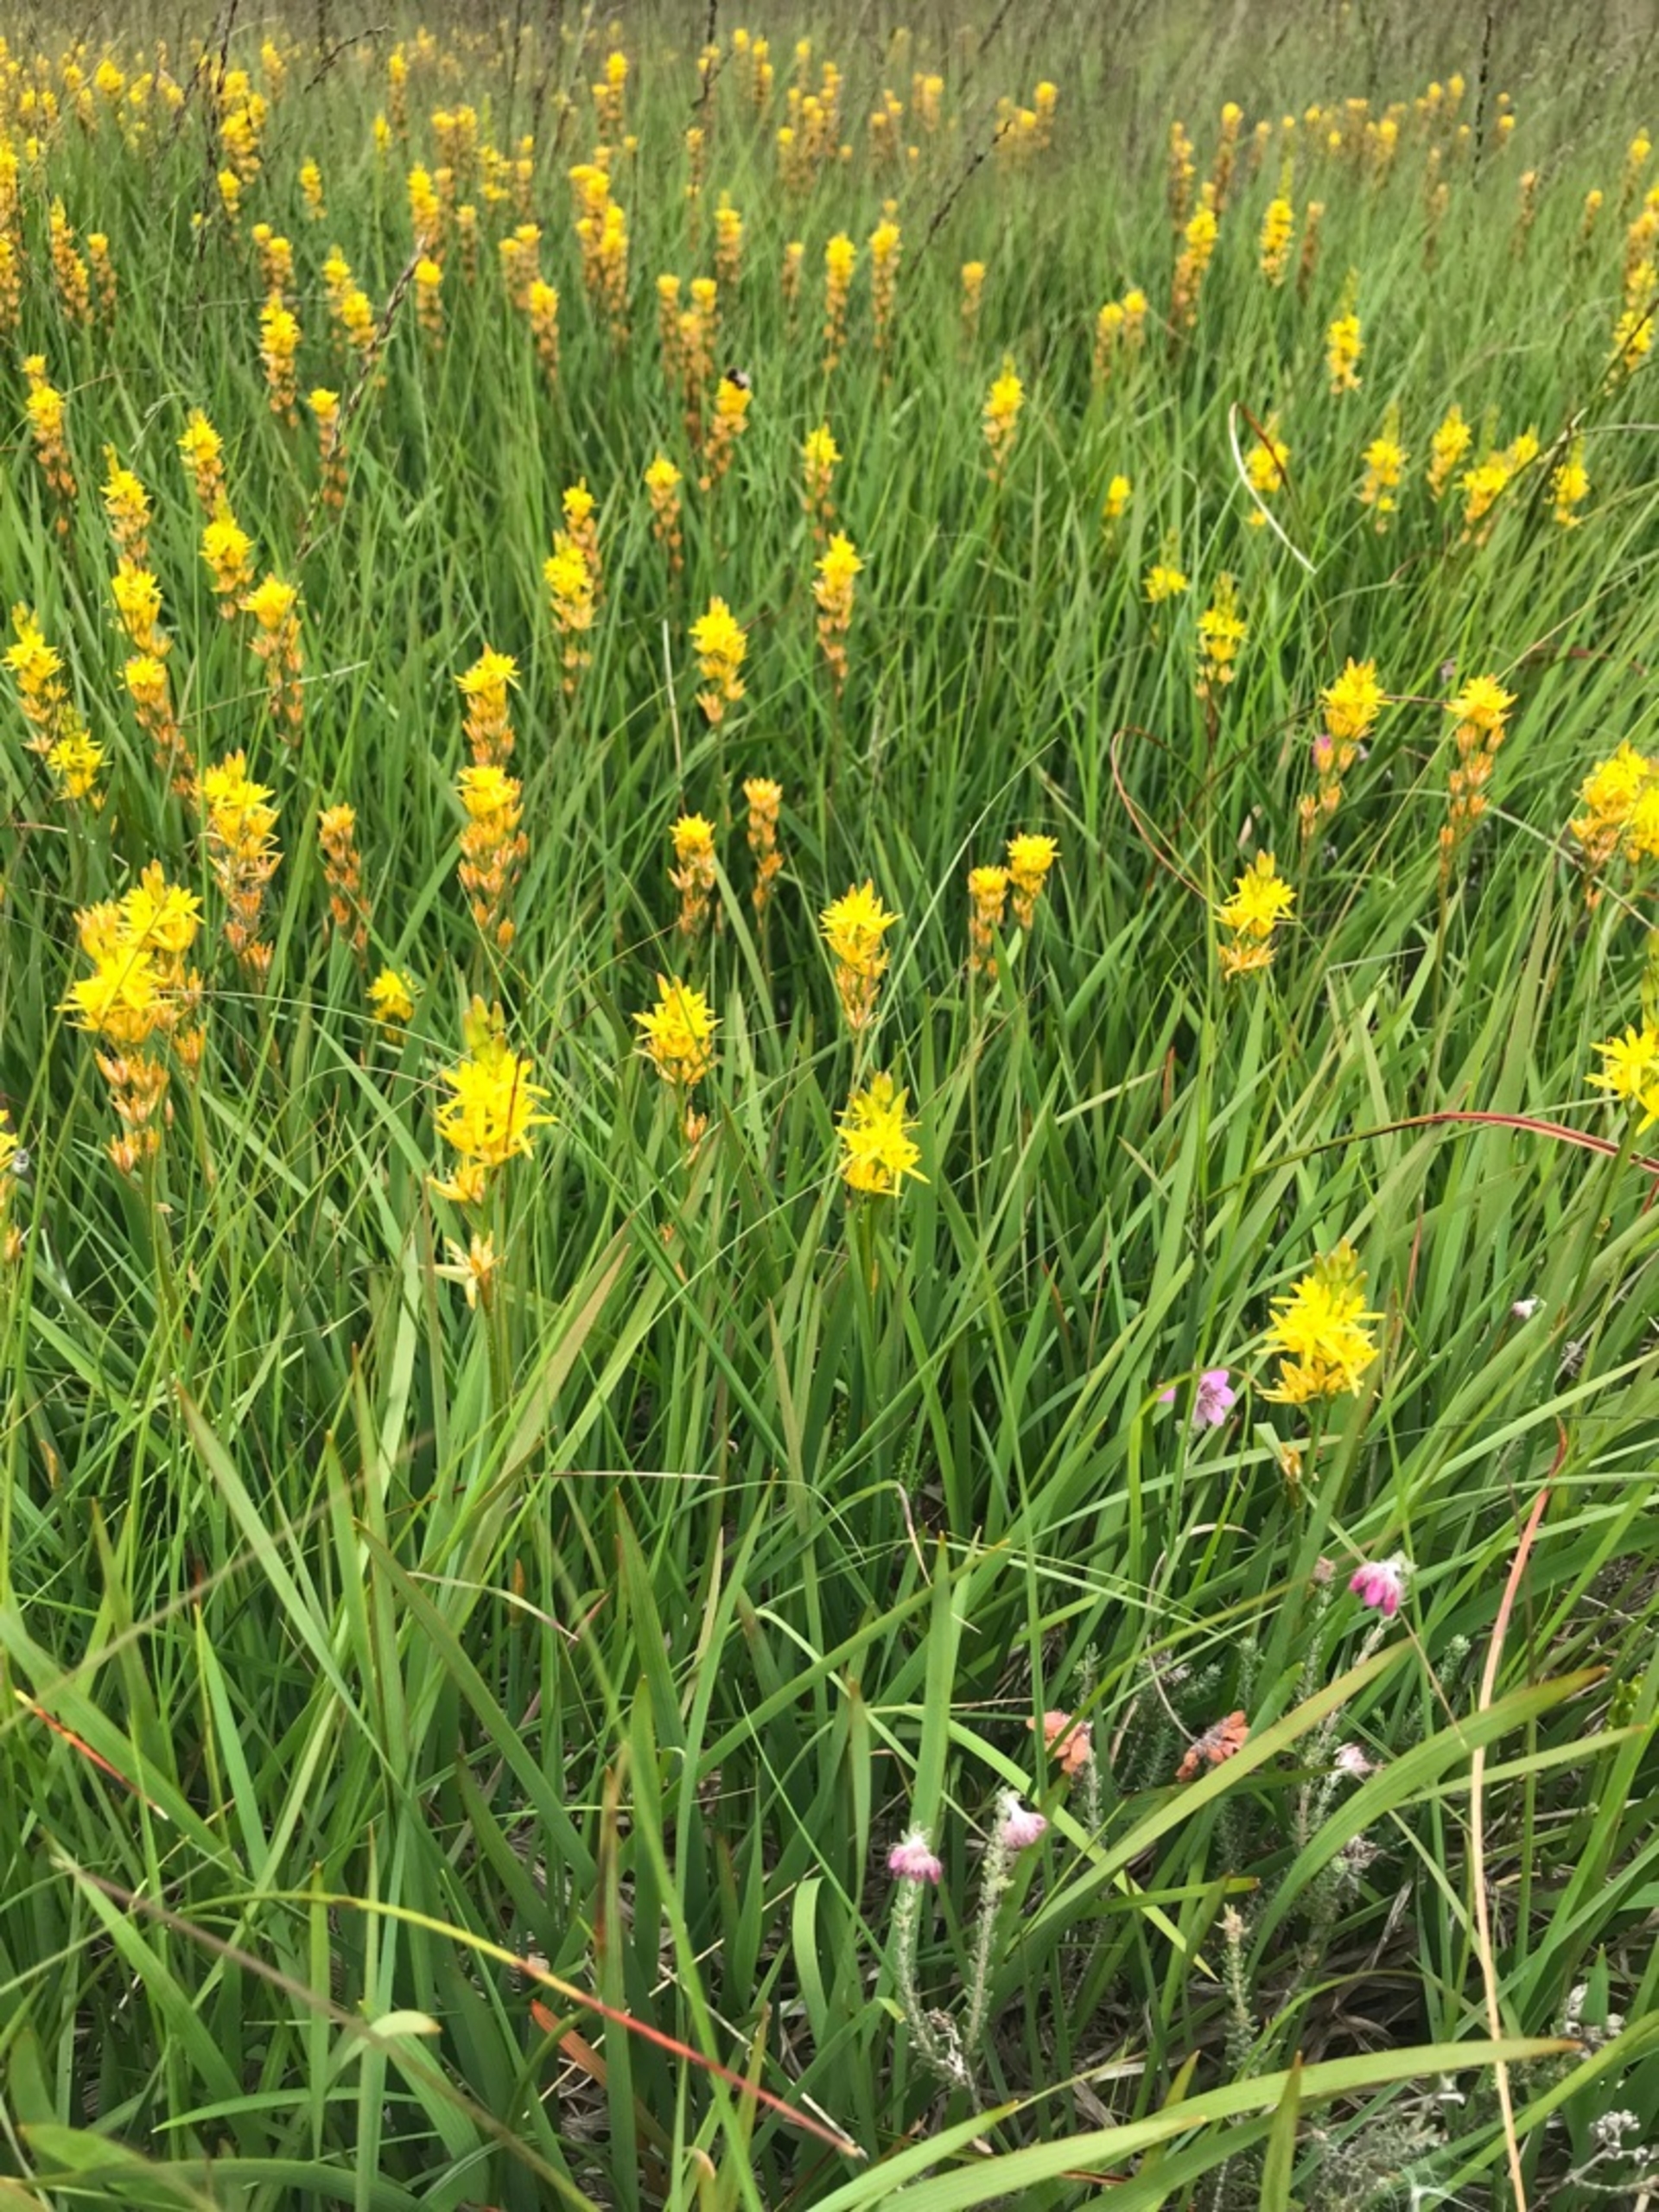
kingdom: Plantae
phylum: Tracheophyta
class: Liliopsida
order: Dioscoreales
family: Nartheciaceae
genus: Narthecium
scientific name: Narthecium ossifragum
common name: Benbræk
